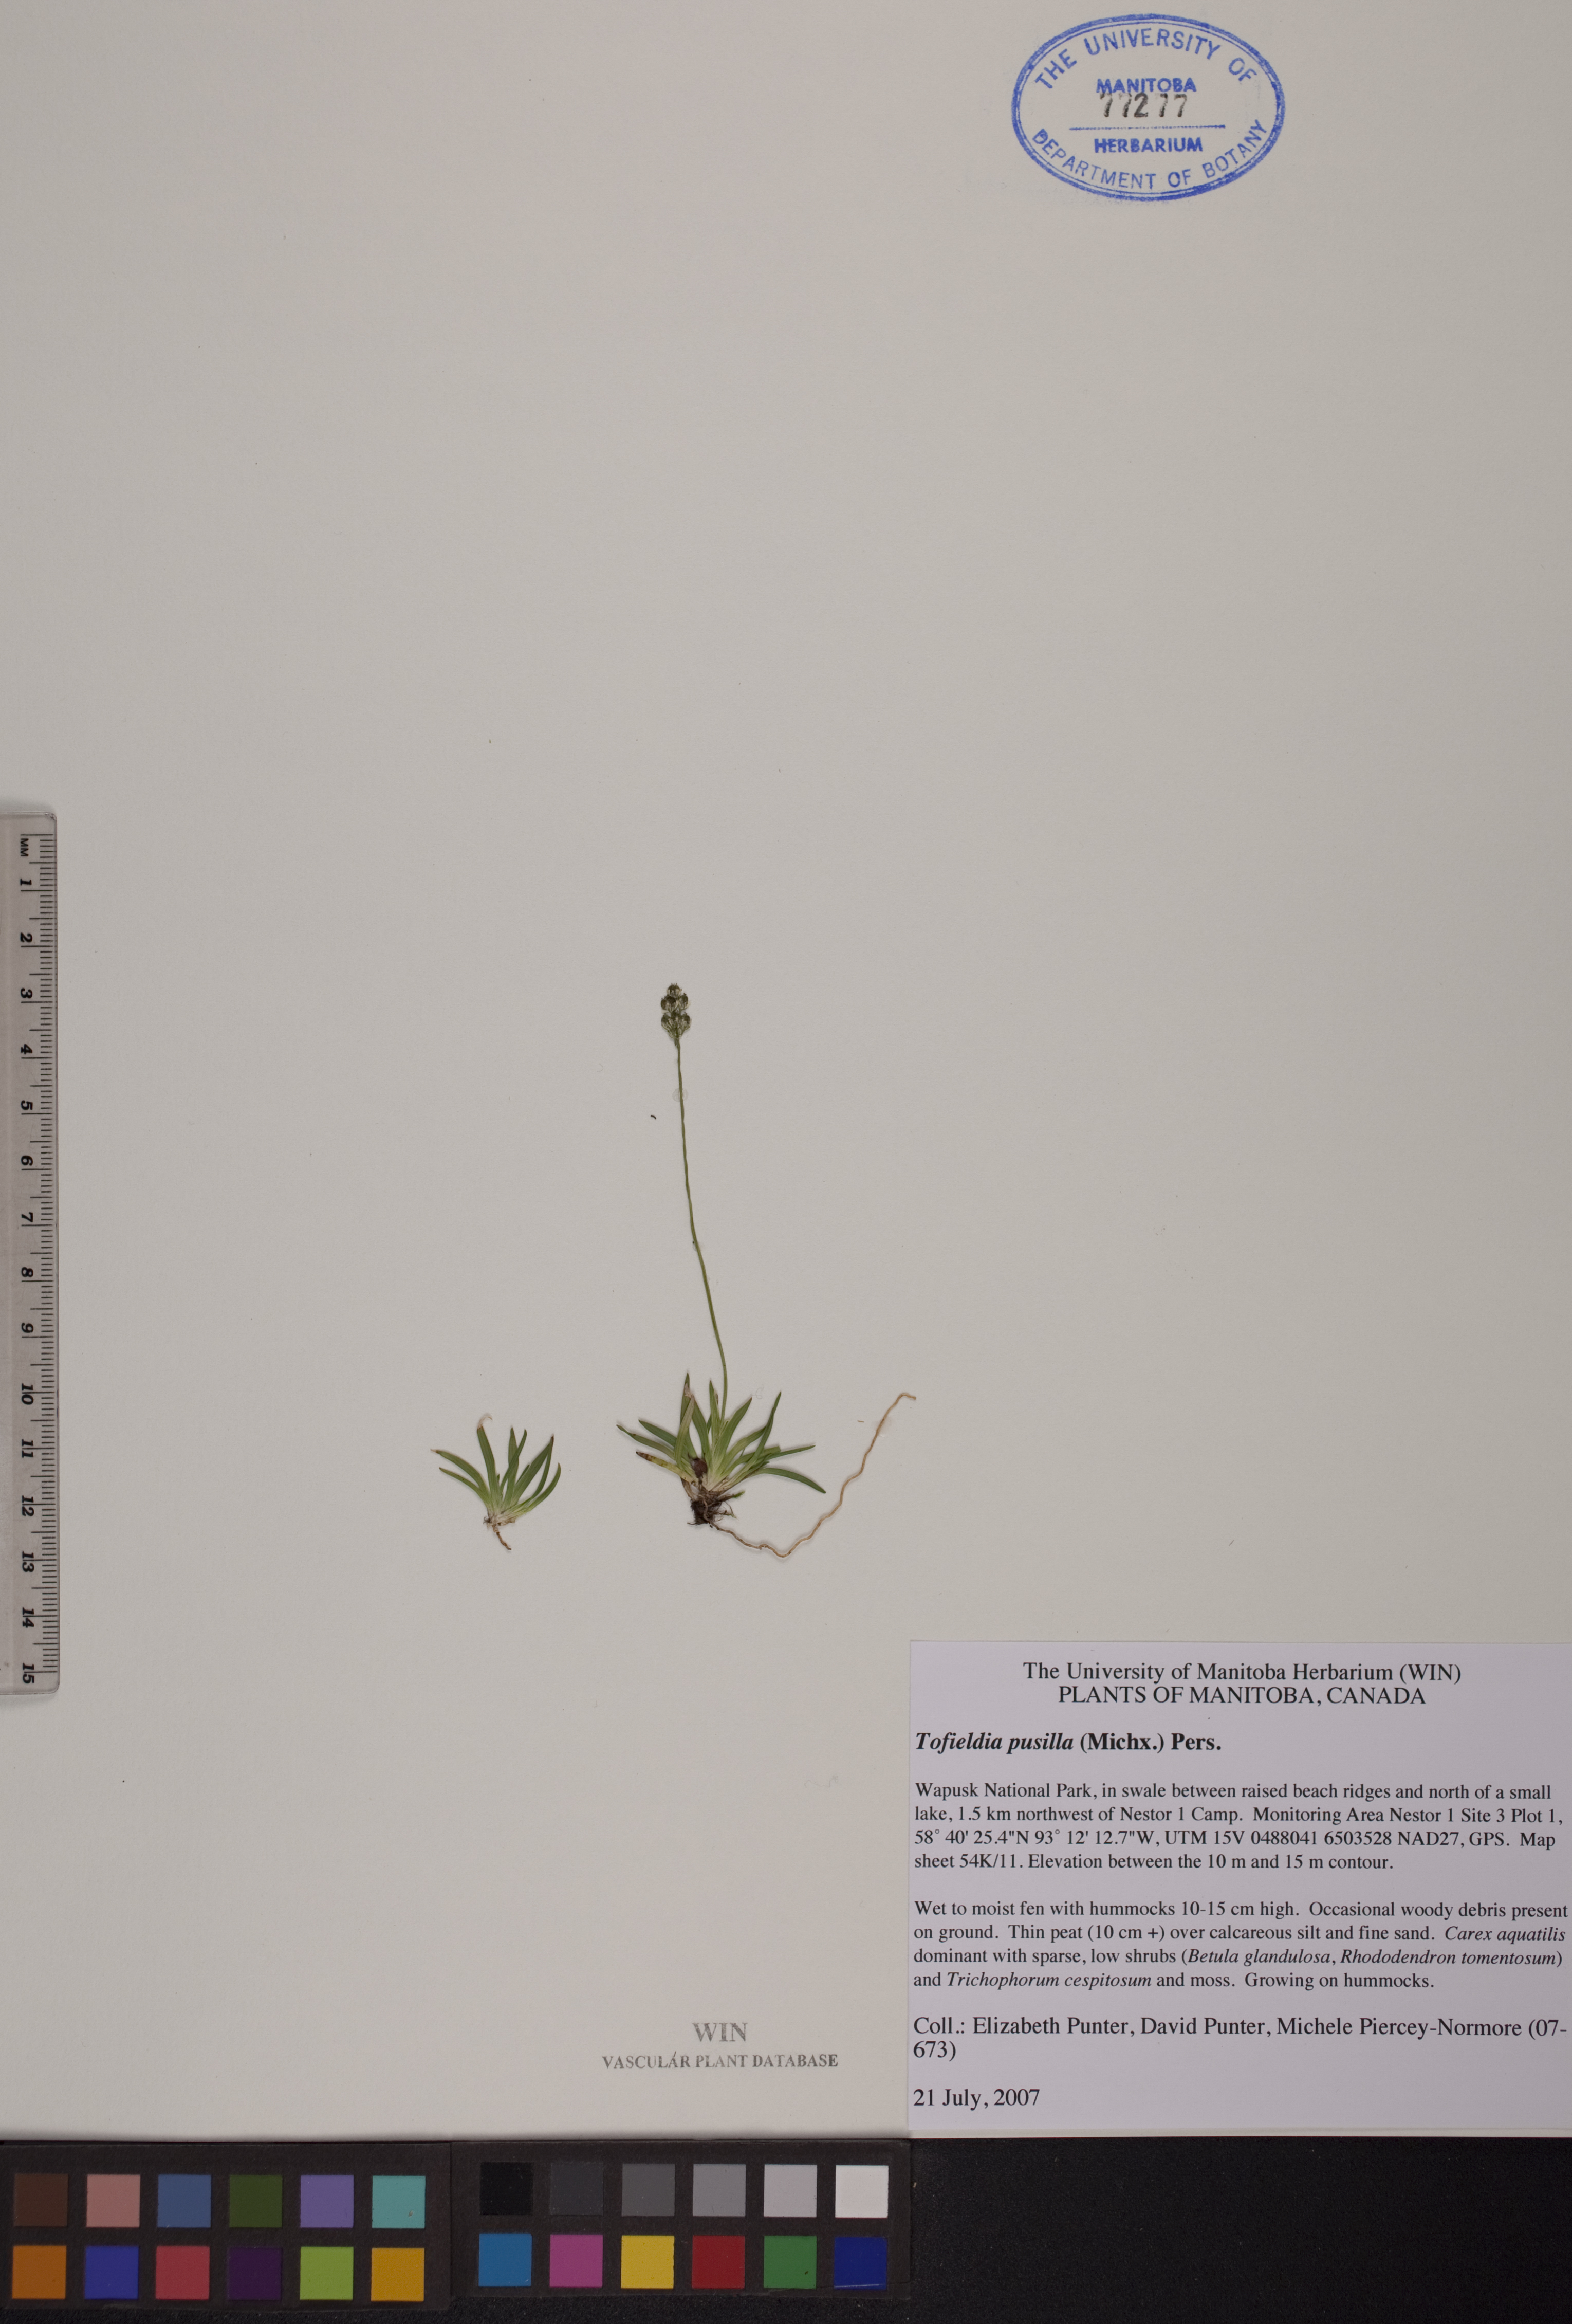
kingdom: Plantae
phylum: Tracheophyta
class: Liliopsida
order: Alismatales
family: Tofieldiaceae
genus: Tofieldia
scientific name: Tofieldia pusilla
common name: Scottish false asphodel
